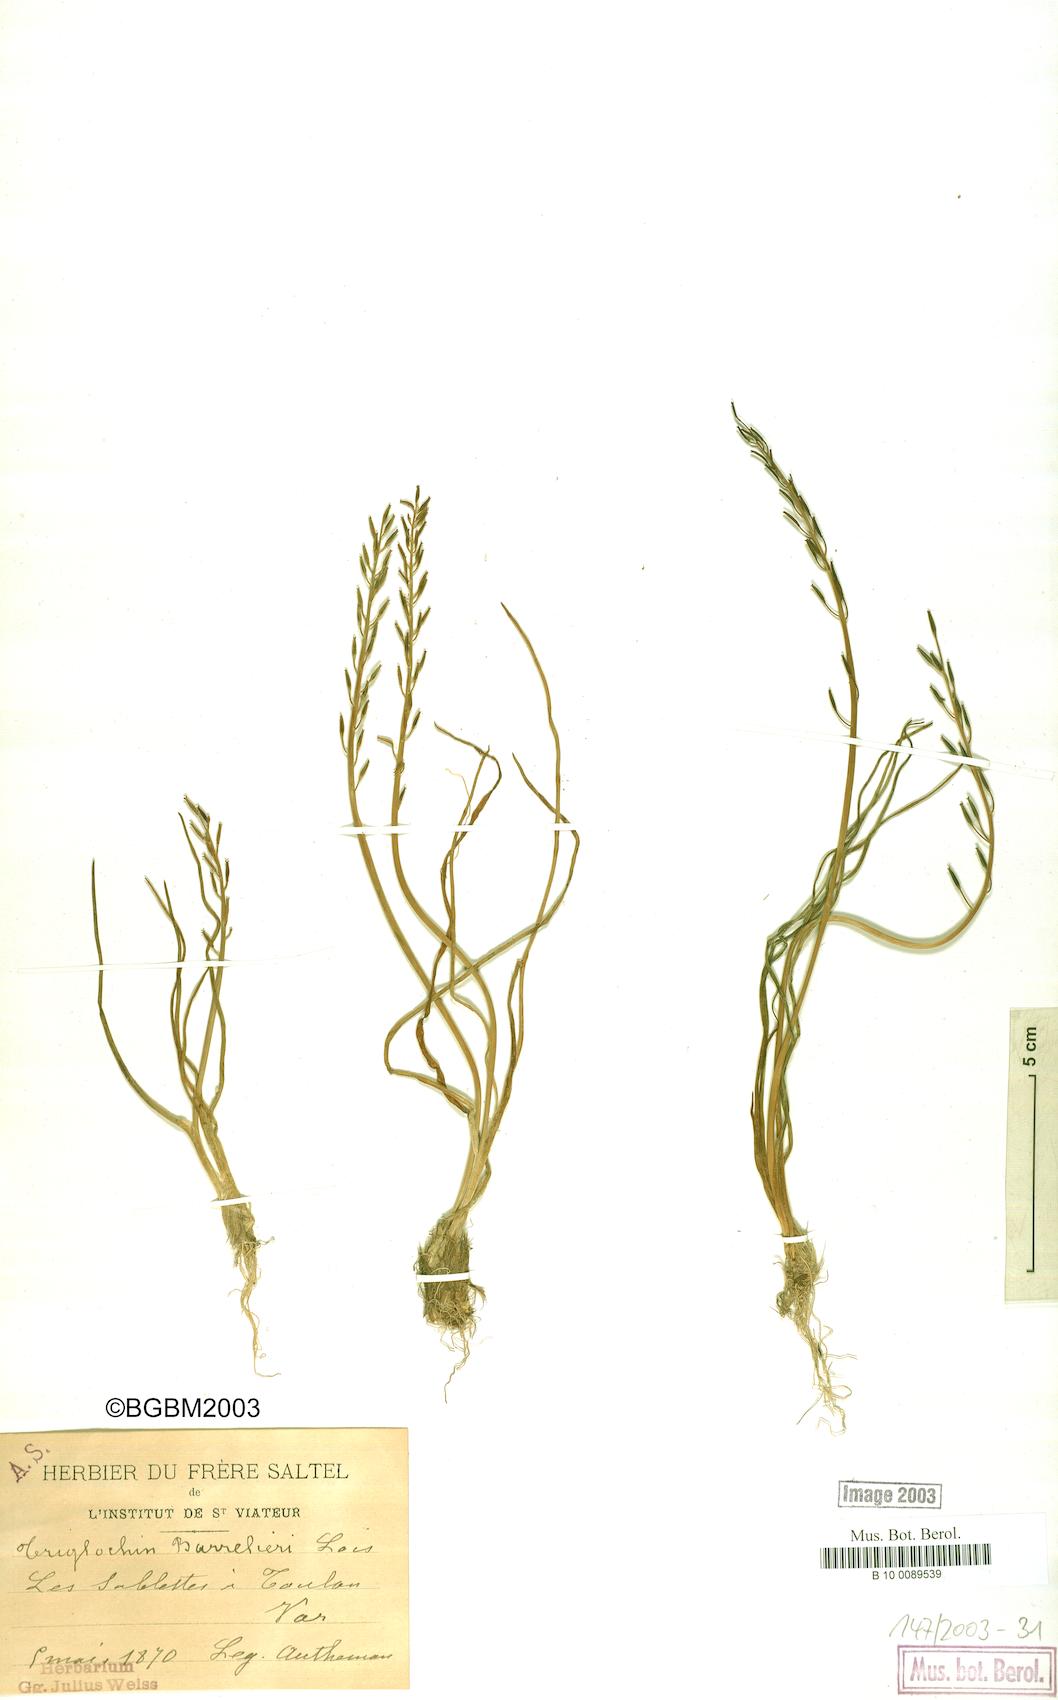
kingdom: Plantae
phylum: Tracheophyta
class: Liliopsida
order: Alismatales
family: Juncaginaceae
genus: Triglochin
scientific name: Triglochin bulbosa
